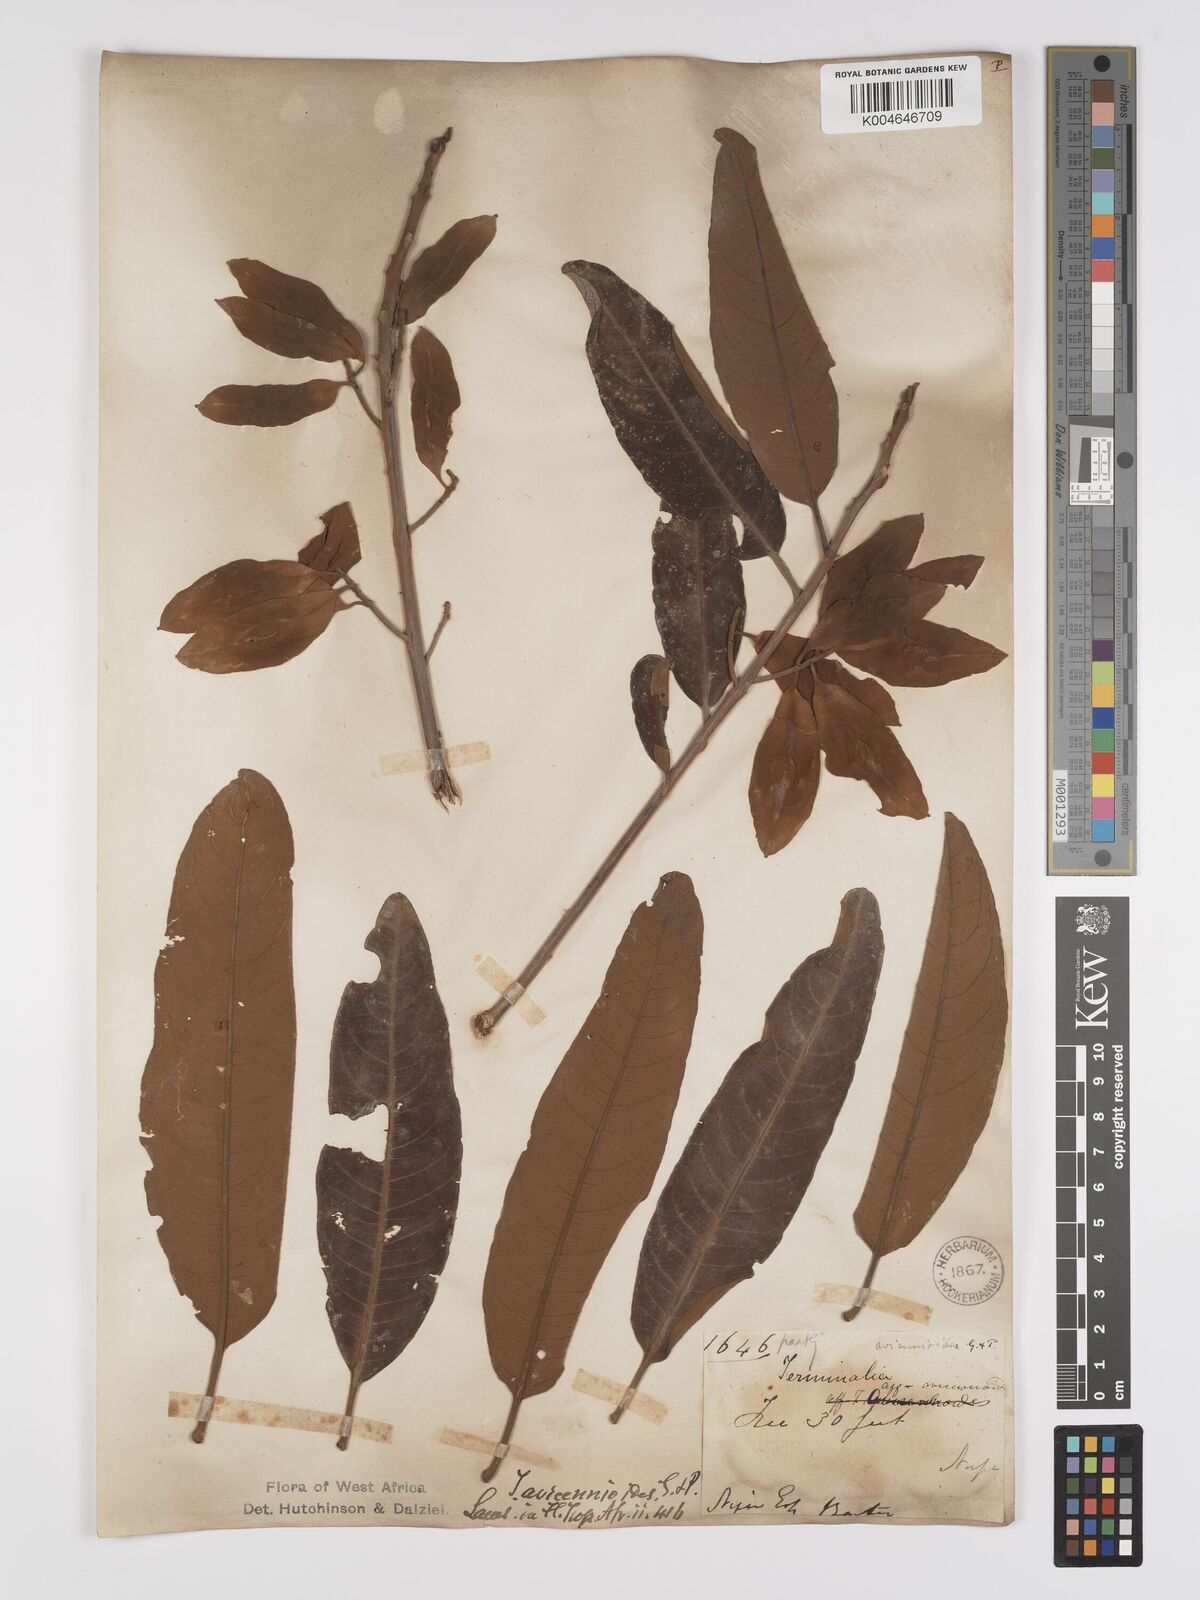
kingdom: Plantae
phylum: Tracheophyta
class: Magnoliopsida
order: Myrtales
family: Combretaceae
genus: Terminalia
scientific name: Terminalia avicennioides
